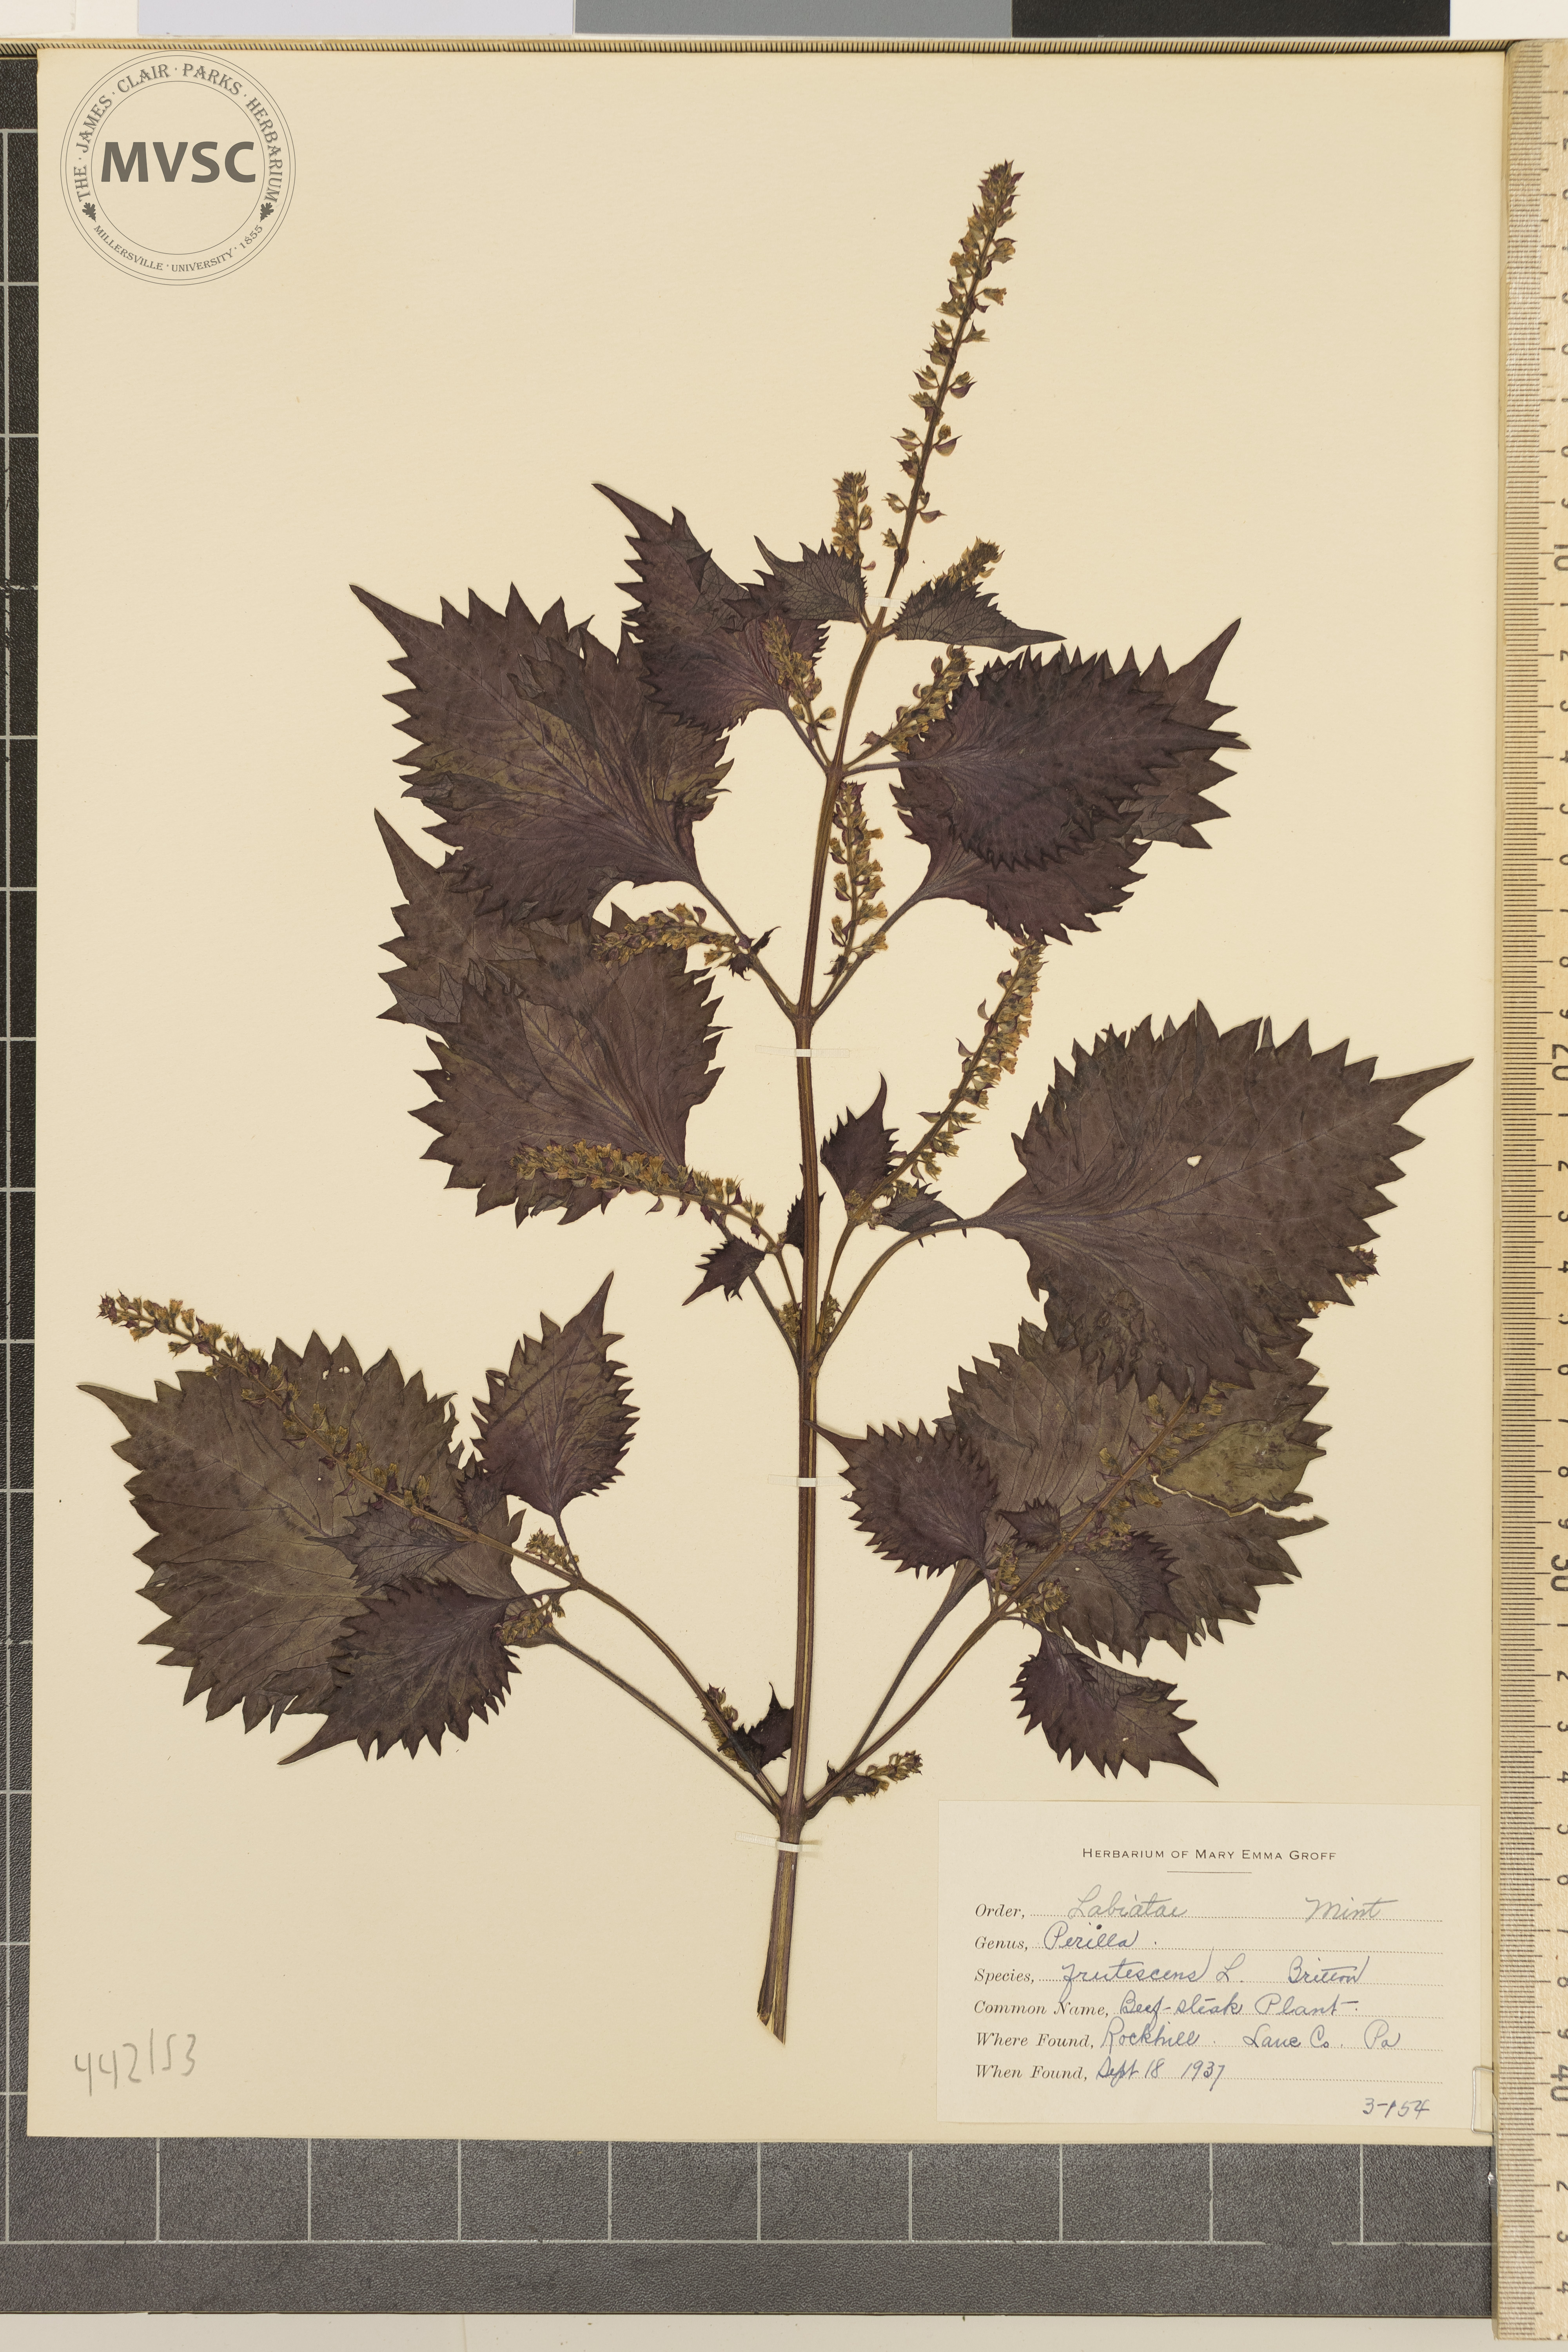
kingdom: Plantae
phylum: Tracheophyta
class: Magnoliopsida
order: Lamiales
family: Lamiaceae
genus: Perilla
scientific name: Perilla frutescens
